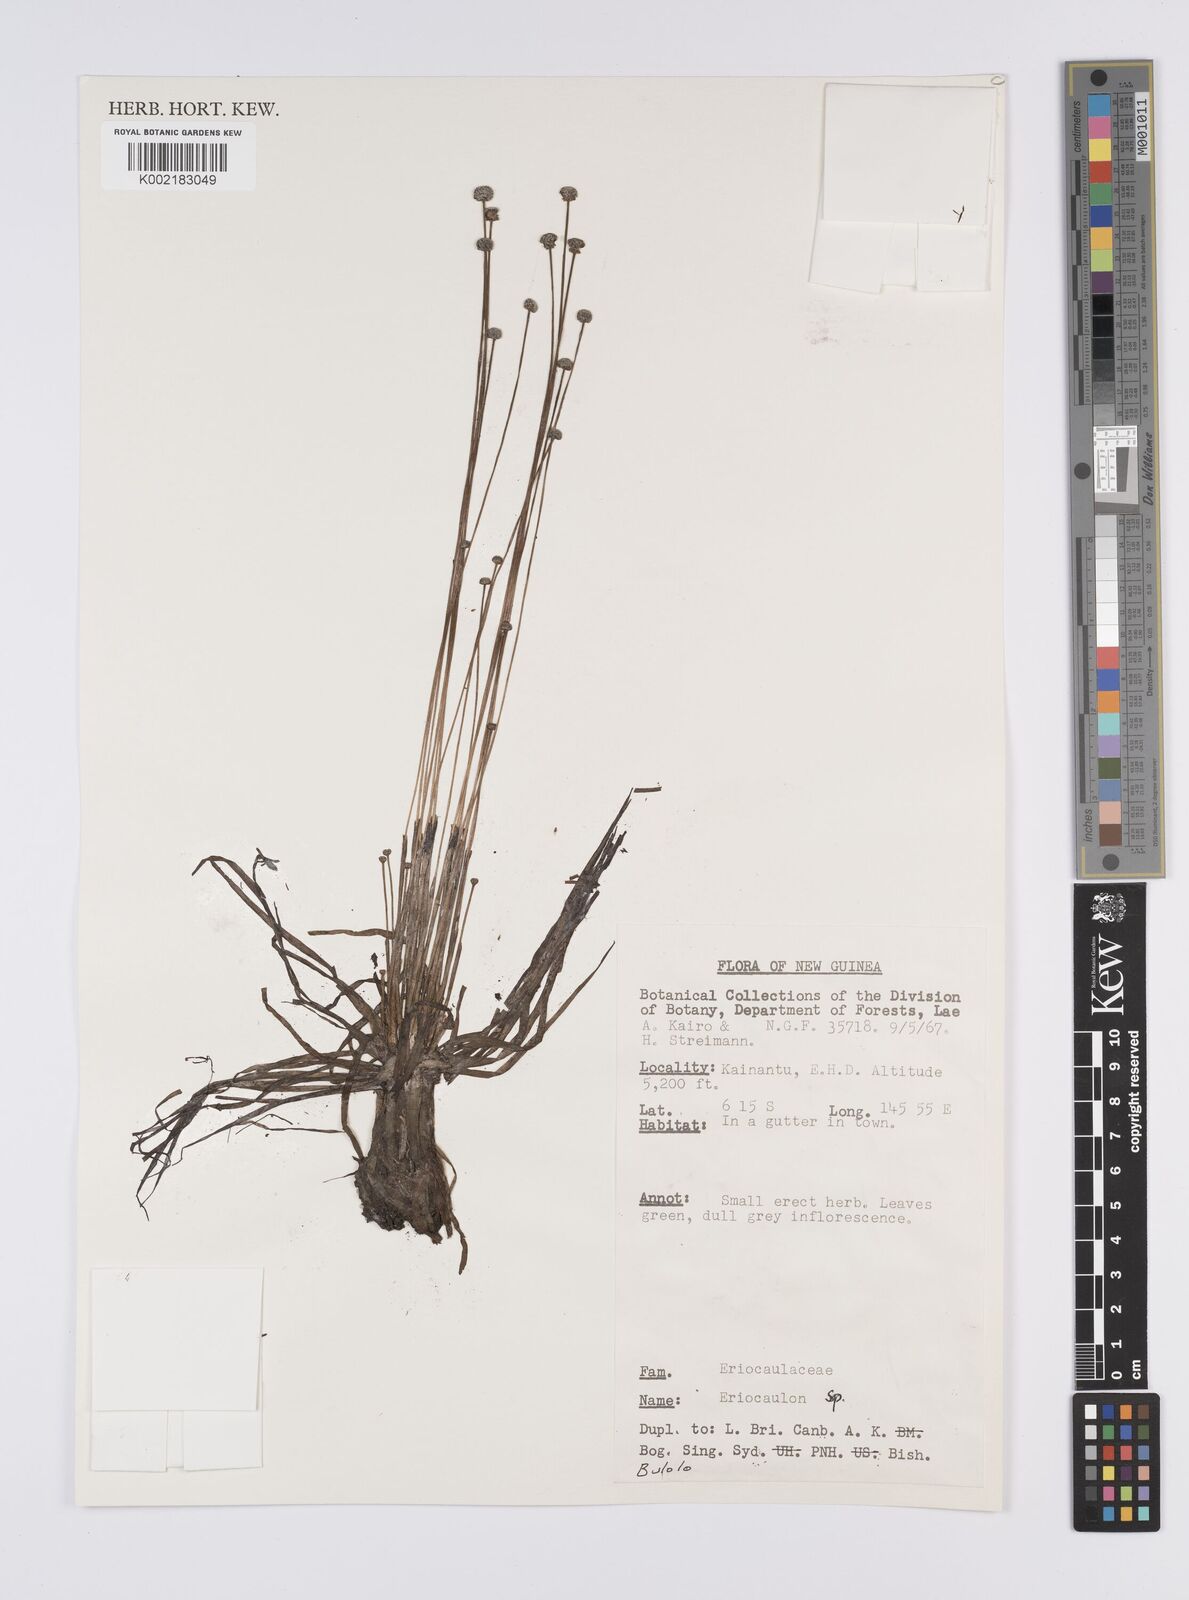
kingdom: Plantae
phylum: Tracheophyta
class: Liliopsida
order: Poales
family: Eriocaulaceae
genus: Eriocaulon
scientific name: Eriocaulon
